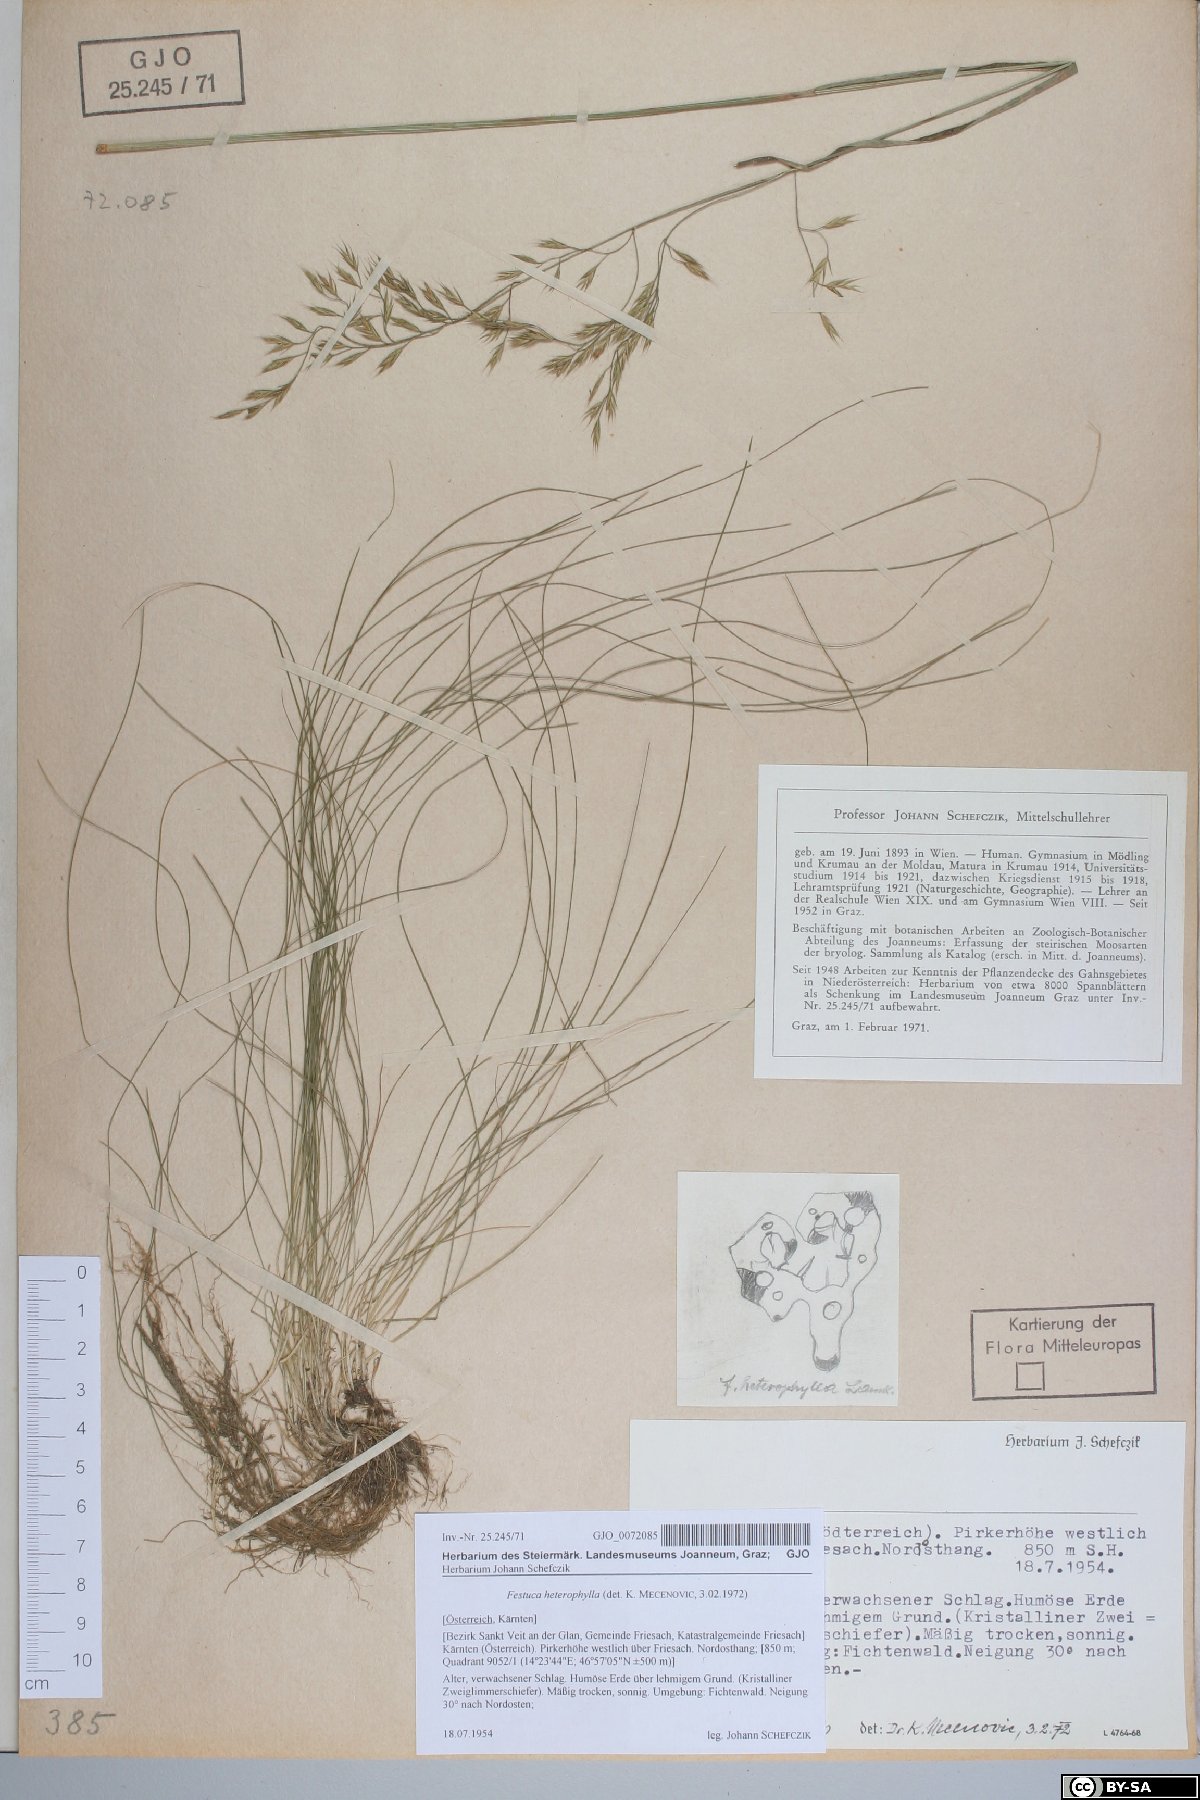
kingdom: Plantae
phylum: Tracheophyta
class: Liliopsida
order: Poales
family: Poaceae
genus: Festuca
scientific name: Festuca heterophylla
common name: Various-leaved fescue
